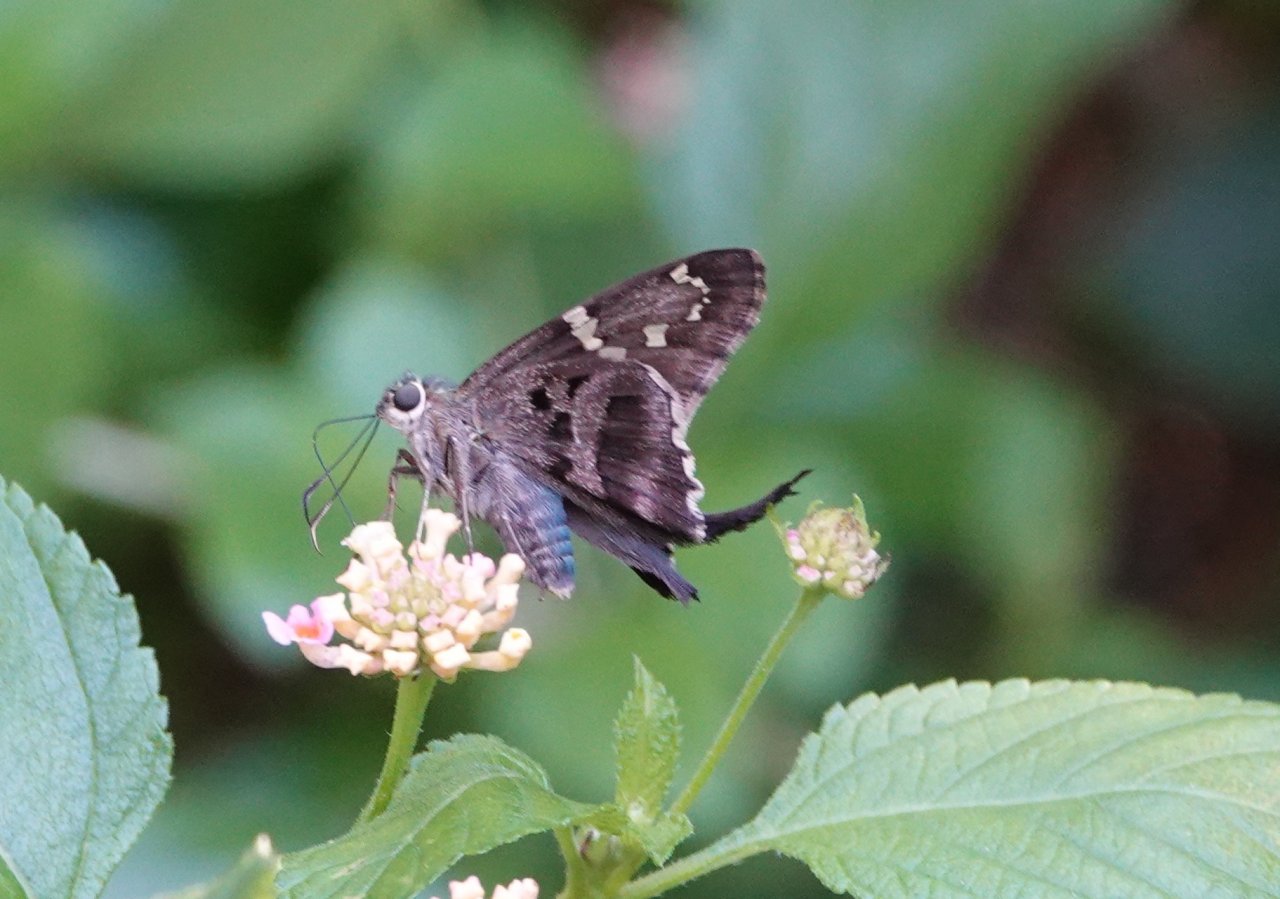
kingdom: Animalia
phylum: Arthropoda
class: Insecta
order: Lepidoptera
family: Hesperiidae
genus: Urbanus
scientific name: Urbanus proteus
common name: Long-tailed Skipper
